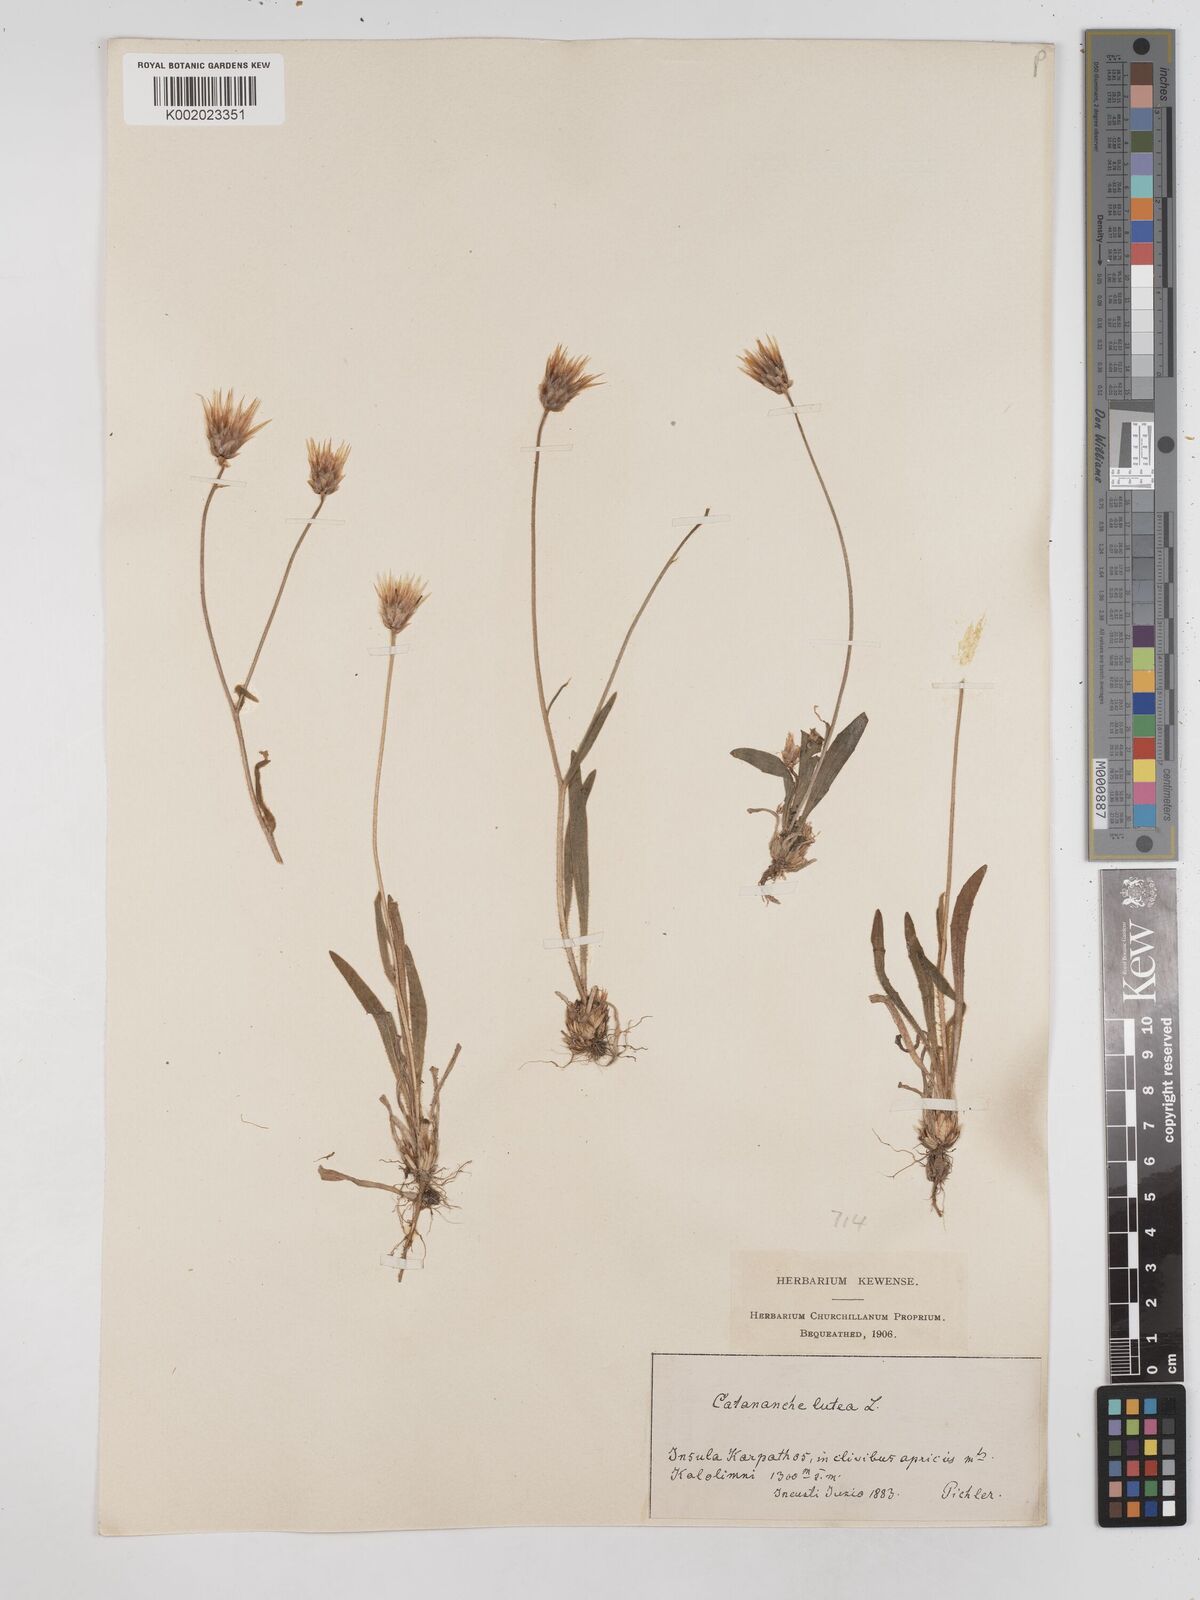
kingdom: Plantae
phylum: Tracheophyta
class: Magnoliopsida
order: Asterales
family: Asteraceae
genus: Catananche
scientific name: Catananche lutea
